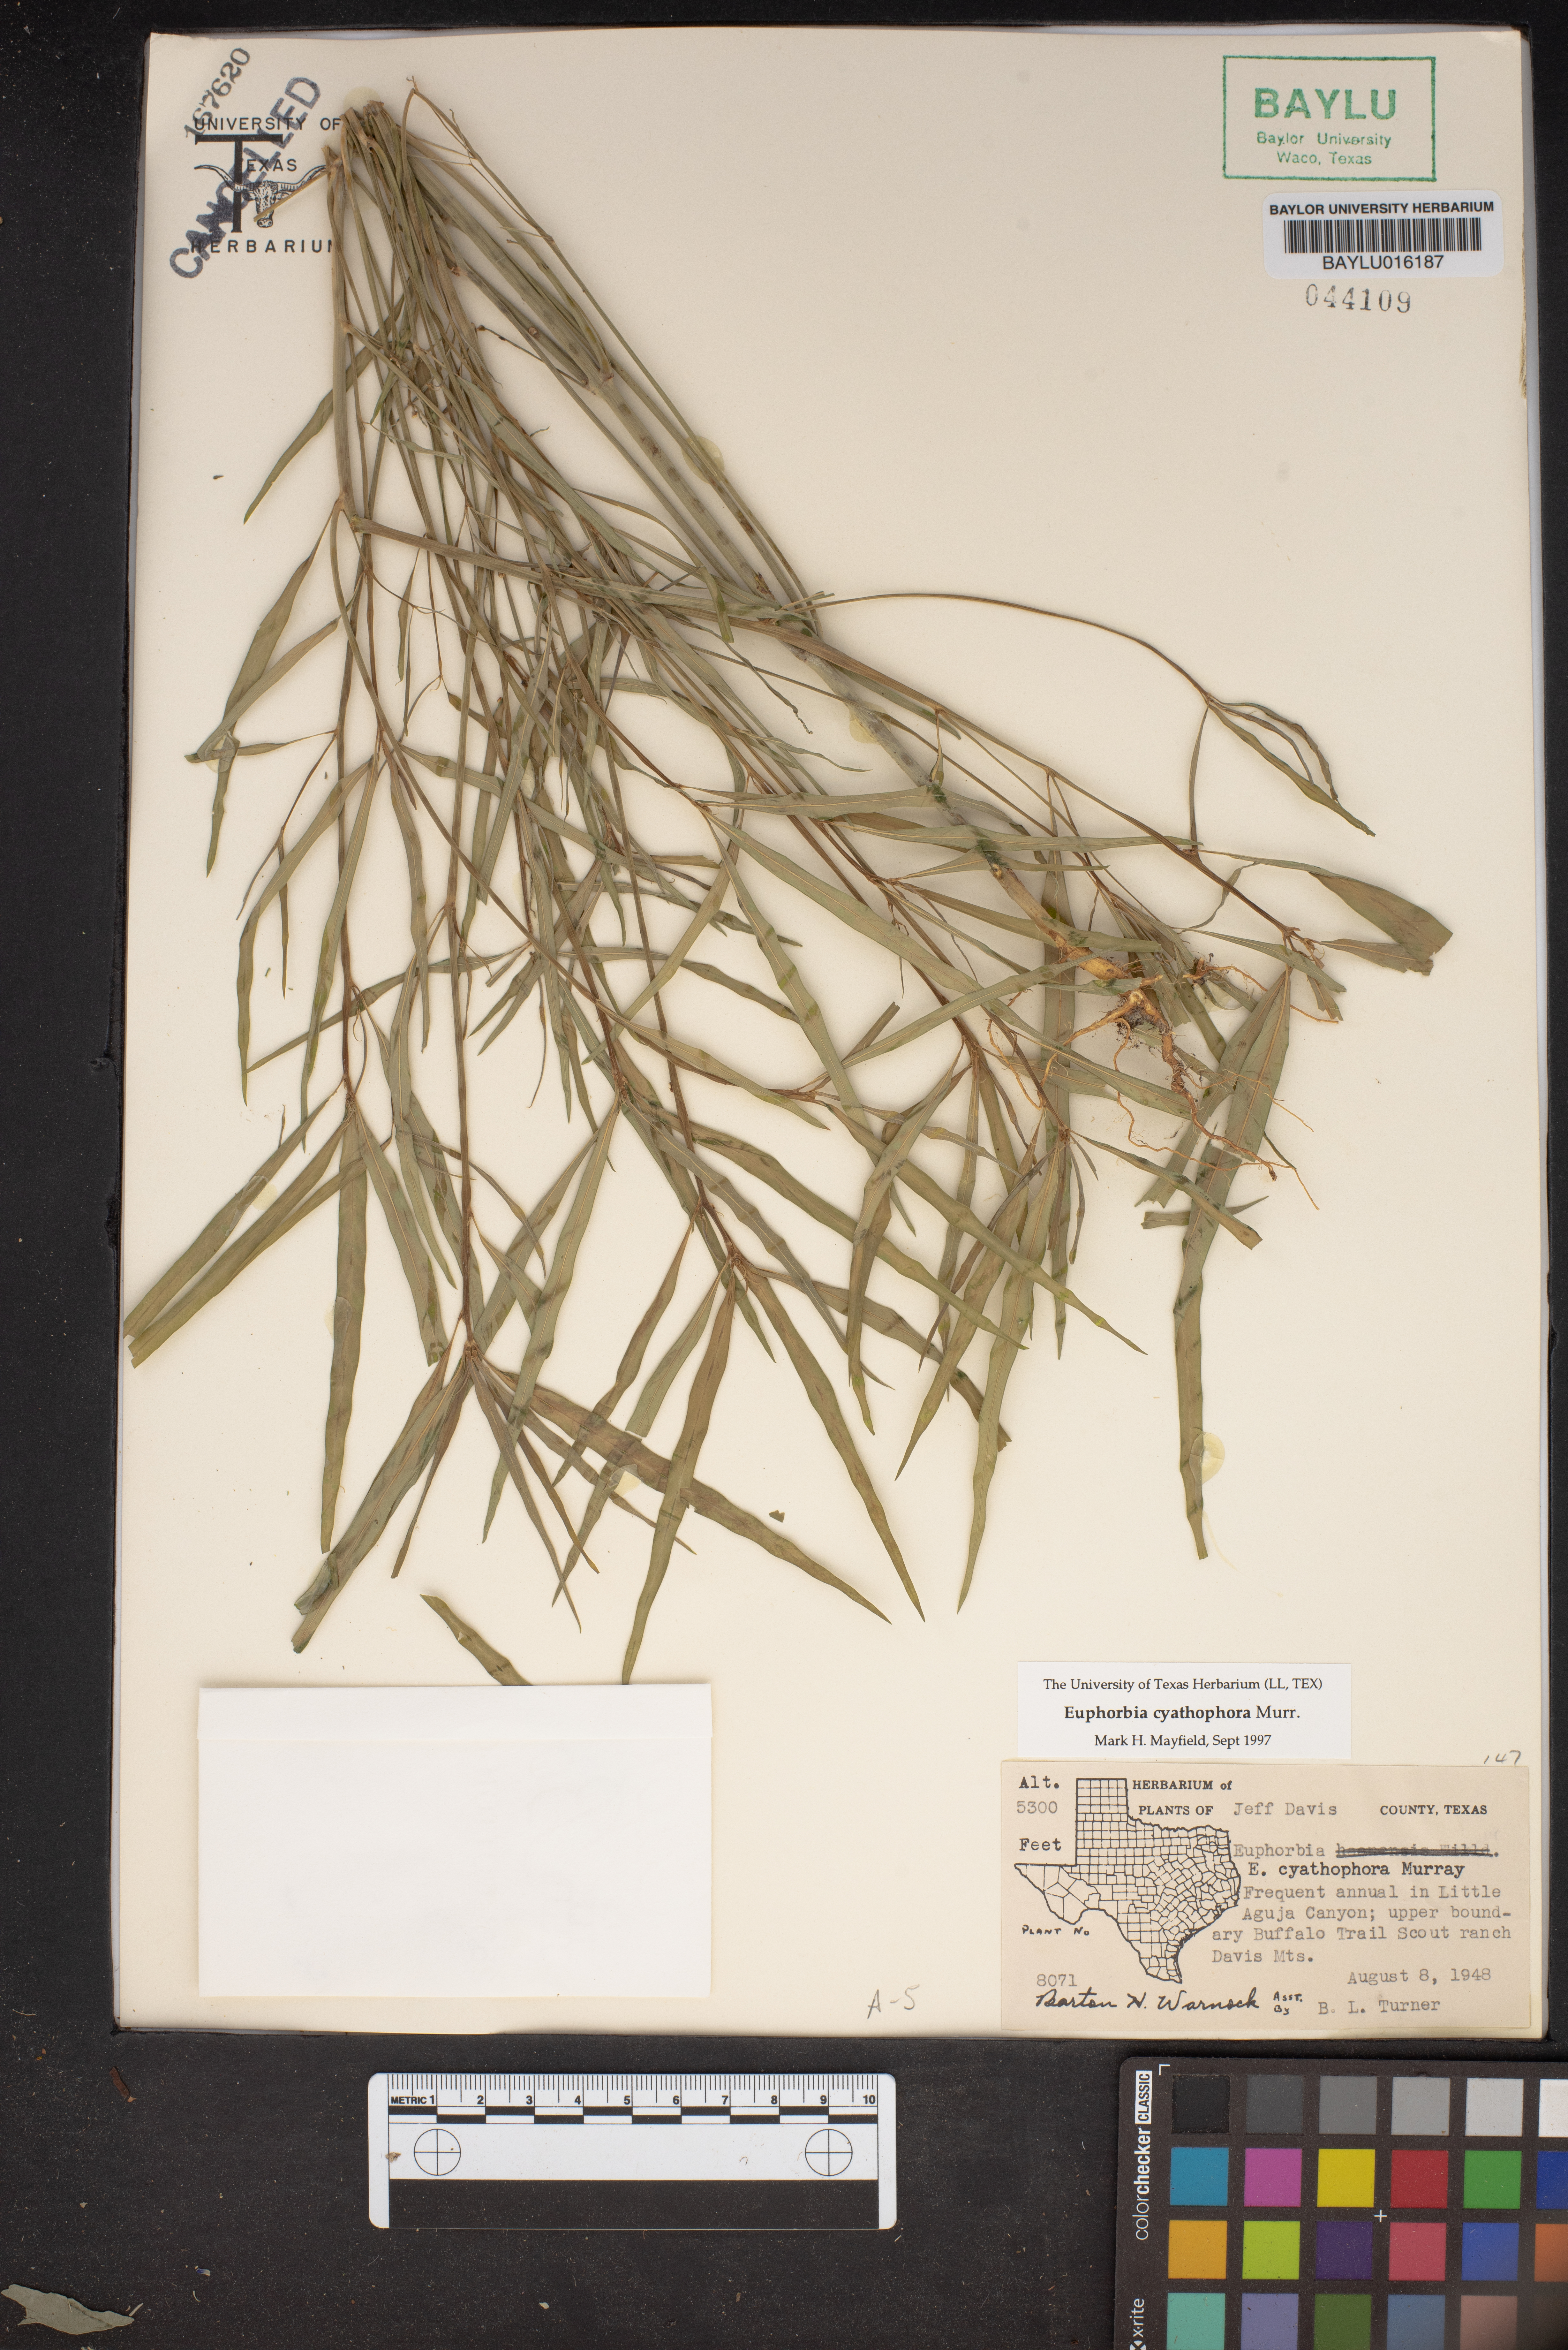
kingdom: Plantae
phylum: Tracheophyta
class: Magnoliopsida
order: Malpighiales
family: Euphorbiaceae
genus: Euphorbia
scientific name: Euphorbia heterophylla
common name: Mexican fireplant
